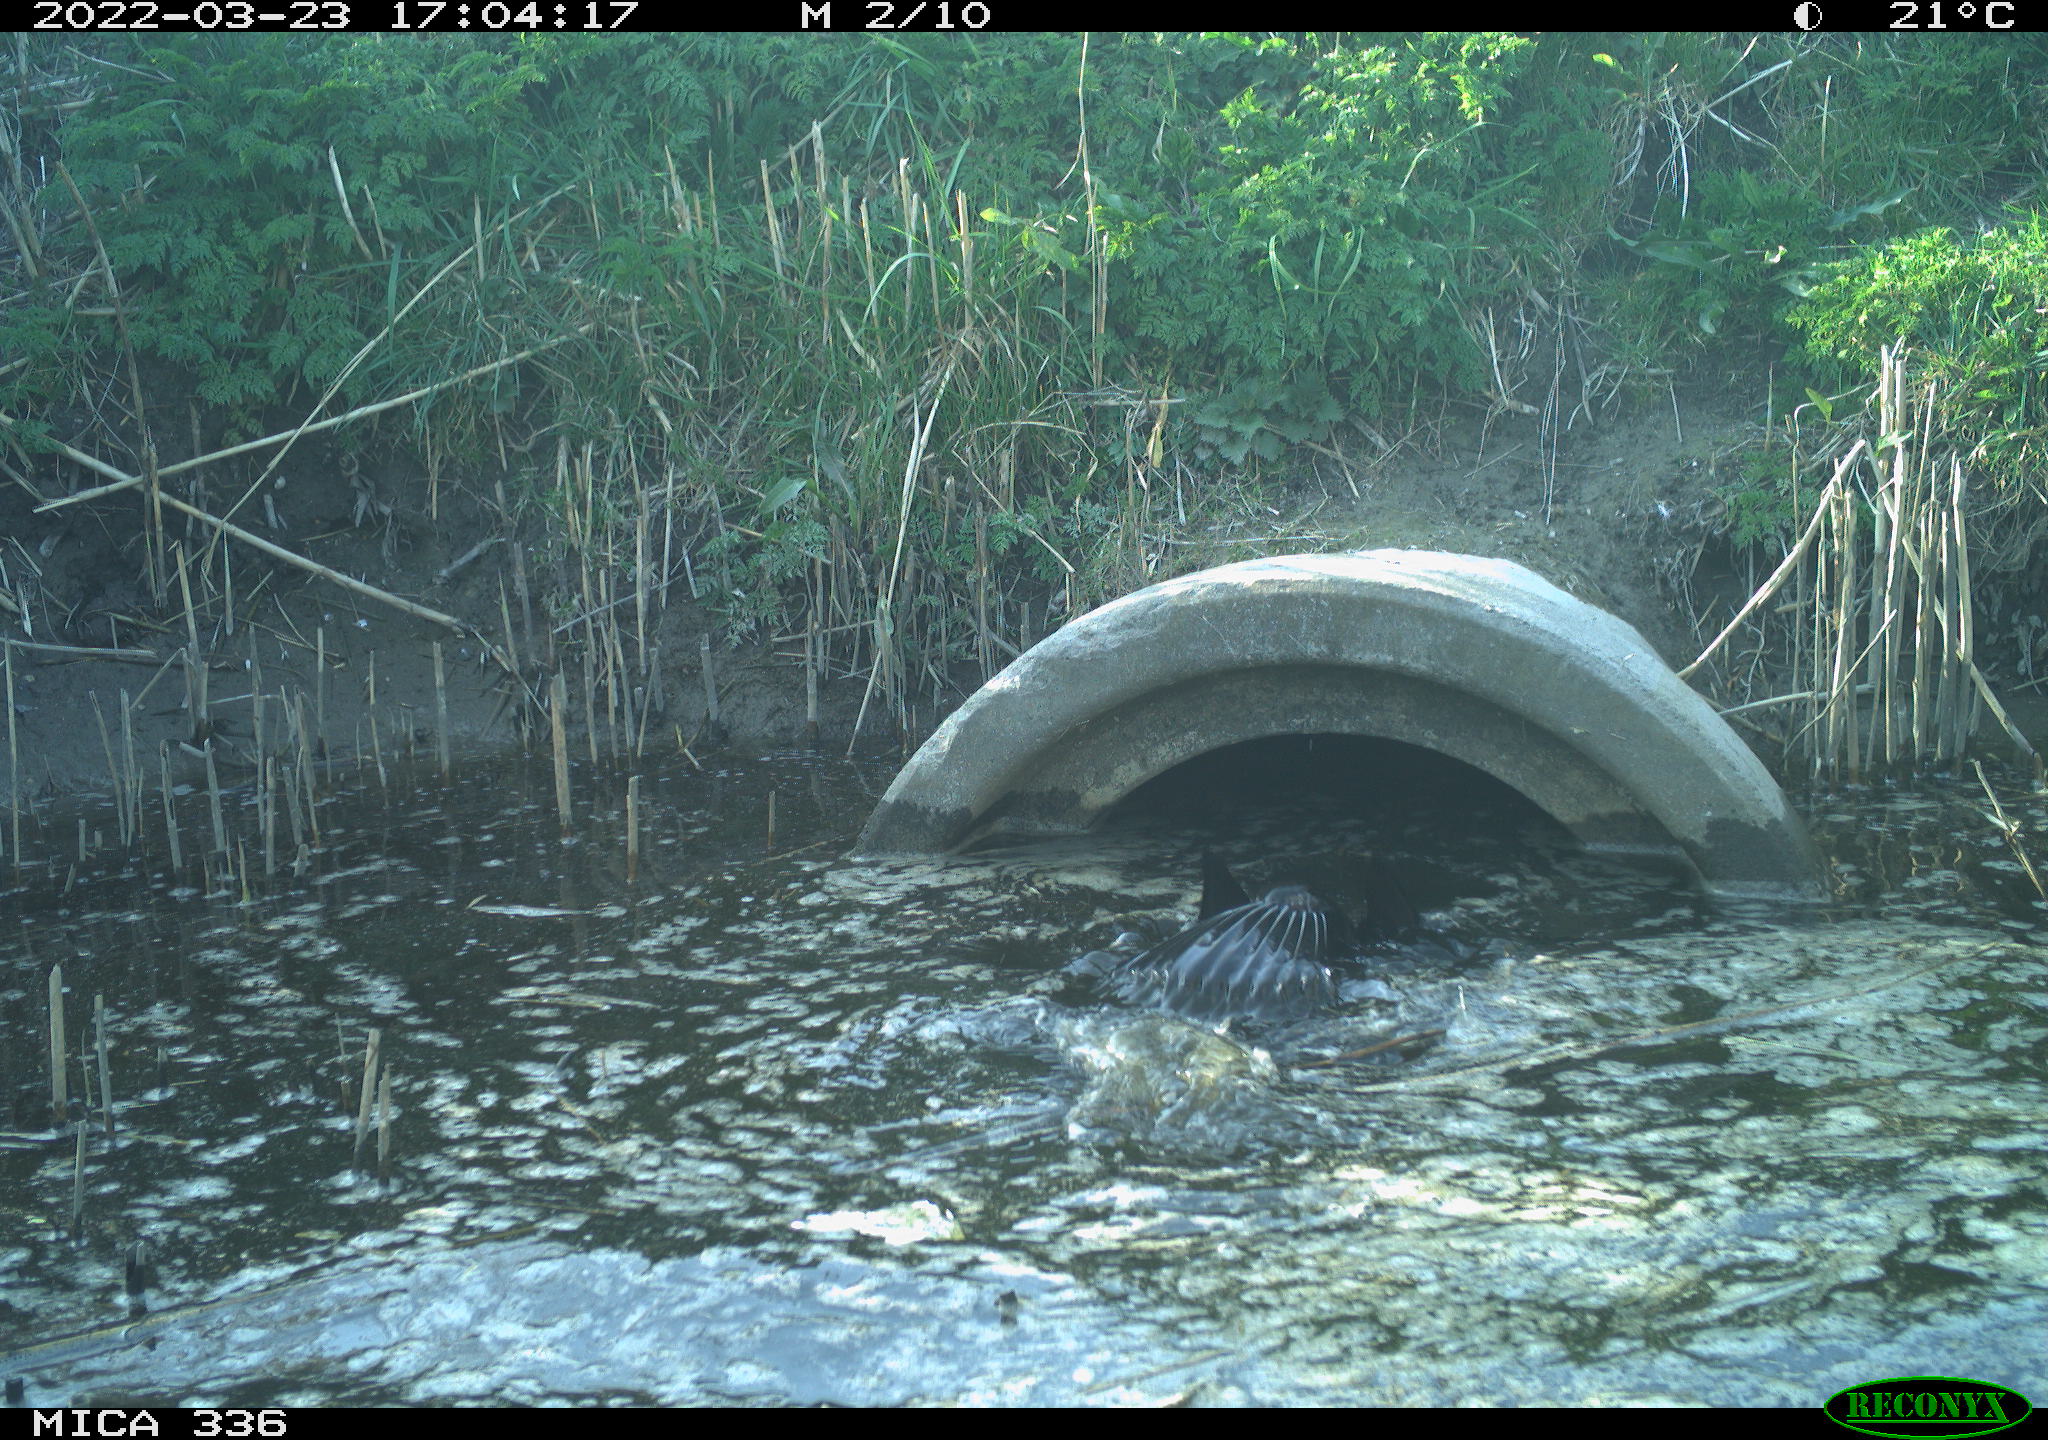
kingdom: Animalia
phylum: Chordata
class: Aves
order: Suliformes
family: Phalacrocoracidae
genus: Phalacrocorax
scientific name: Phalacrocorax carbo
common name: Great cormorant
